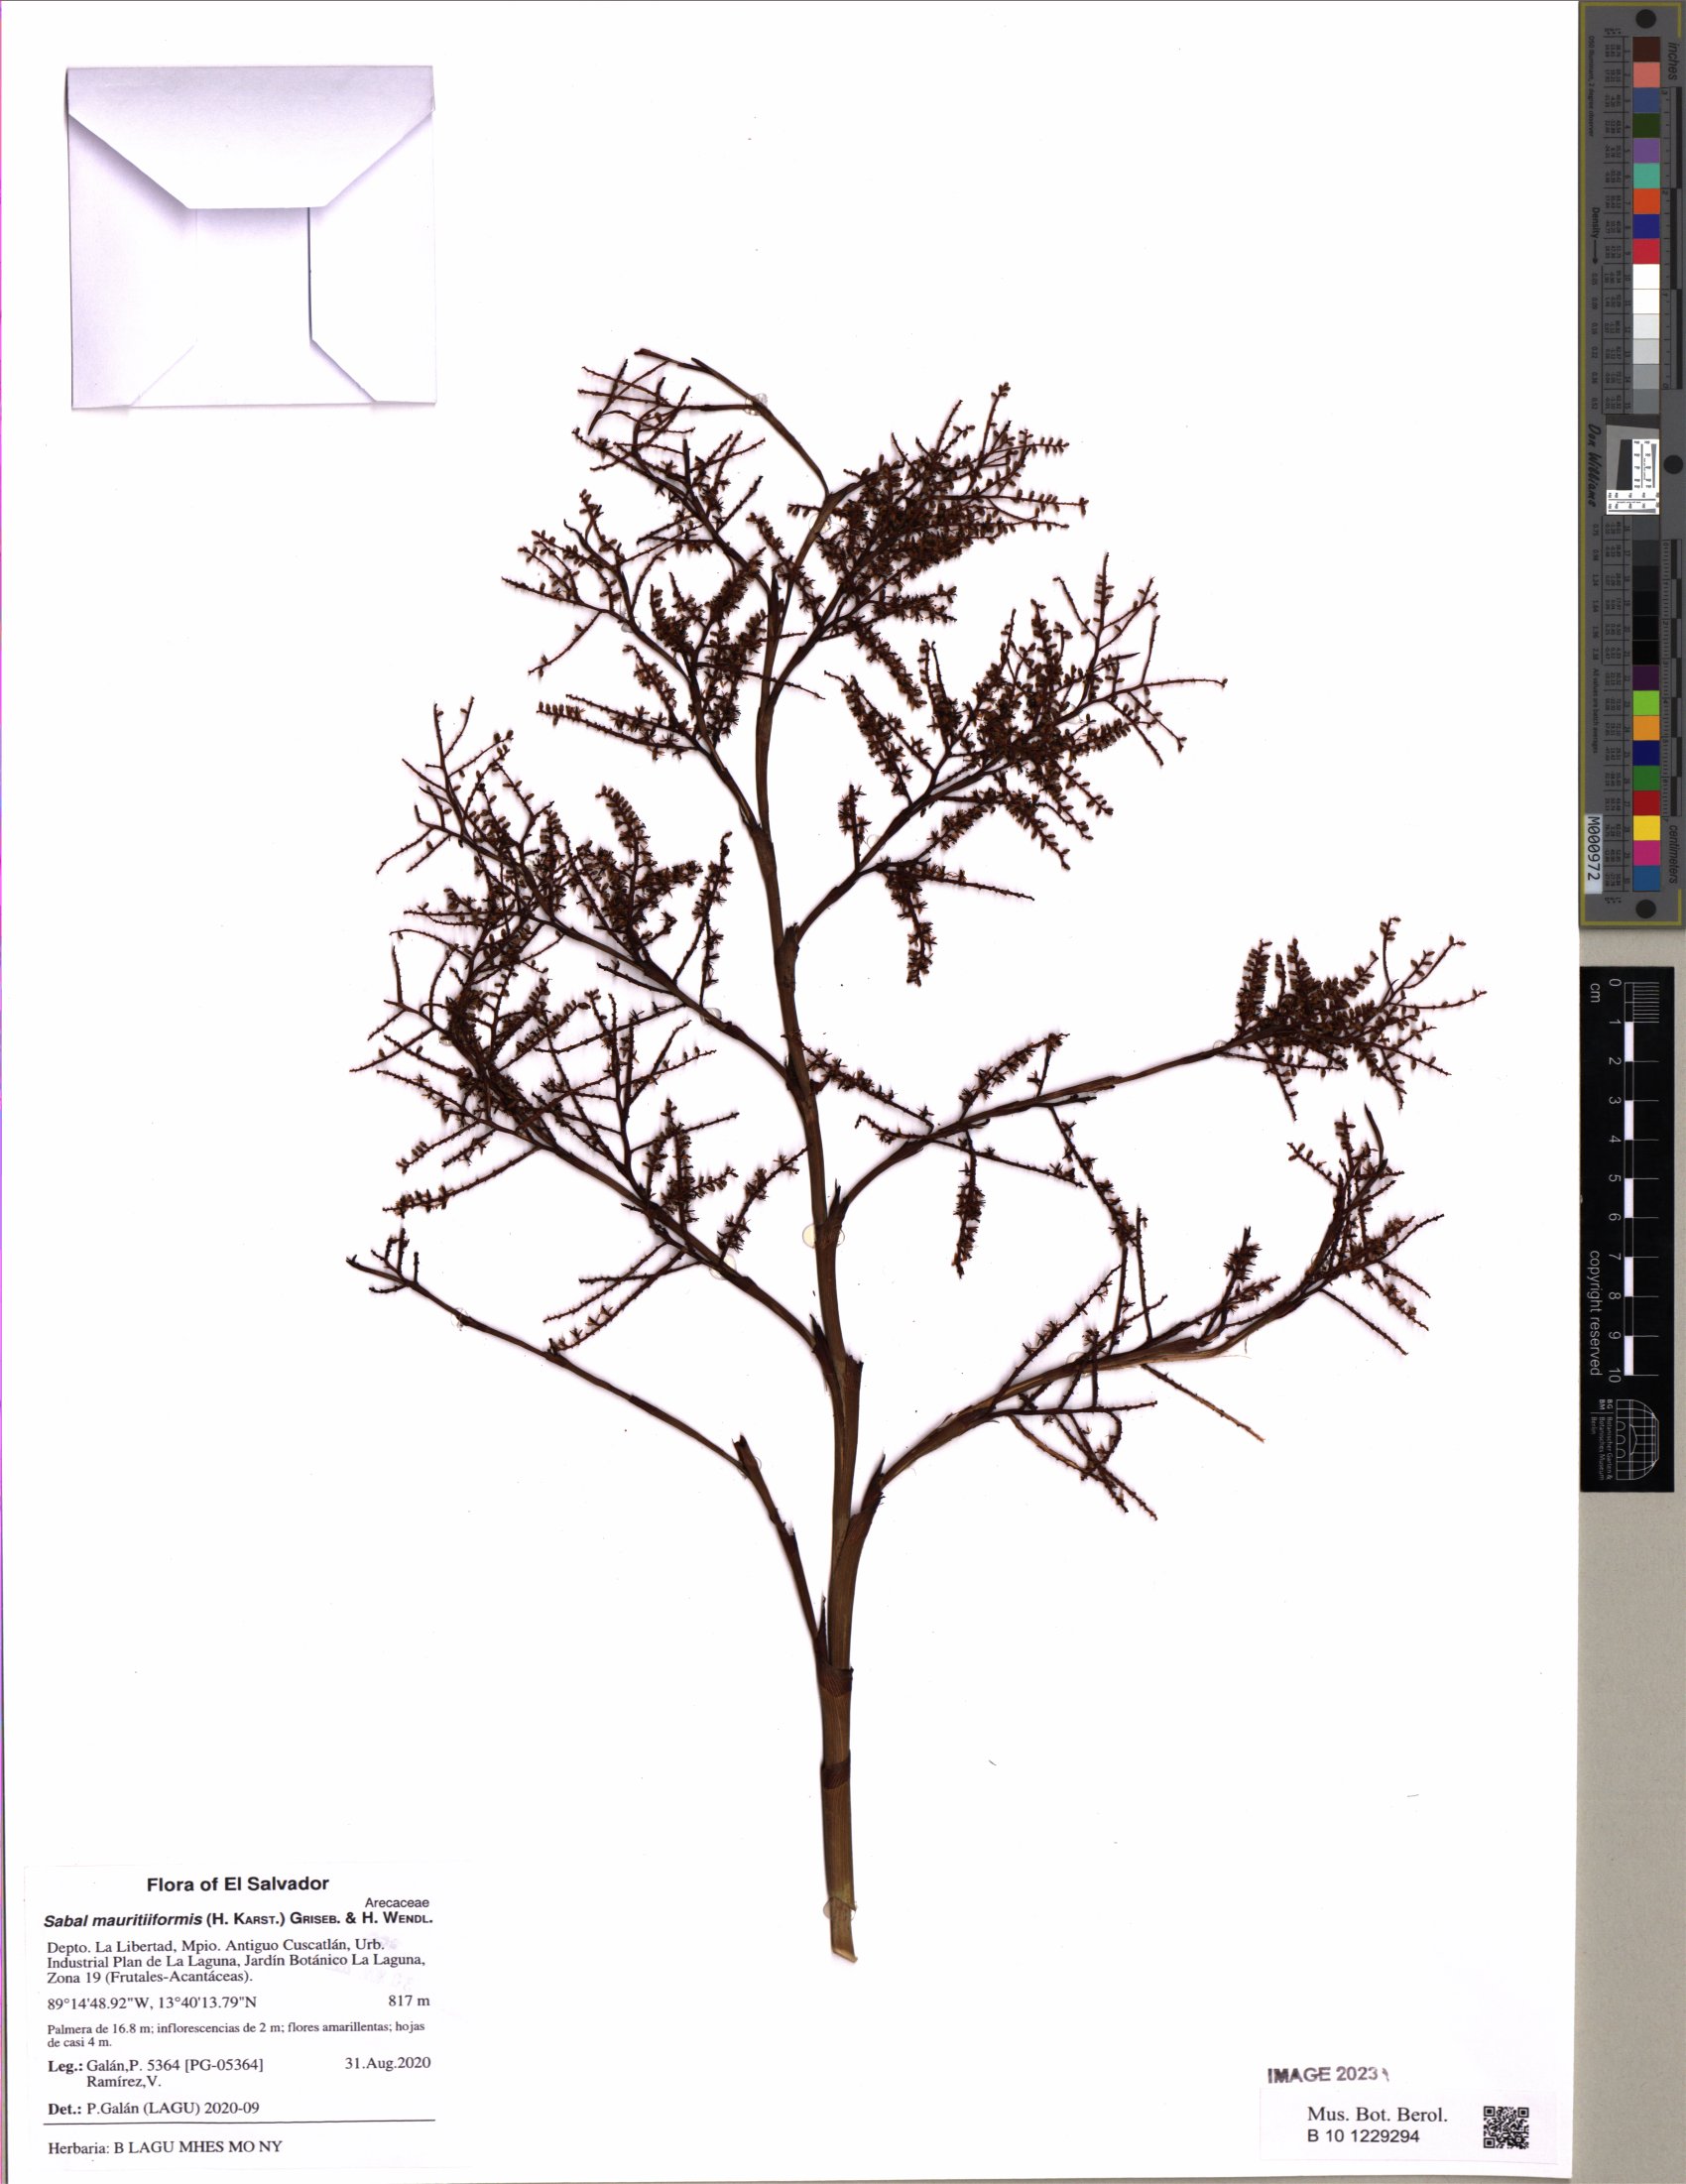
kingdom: Plantae
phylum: Tracheophyta
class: Liliopsida
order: Arecales
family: Arecaceae
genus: Sabal
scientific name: Sabal mauritiiformis
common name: Trinidad palm
